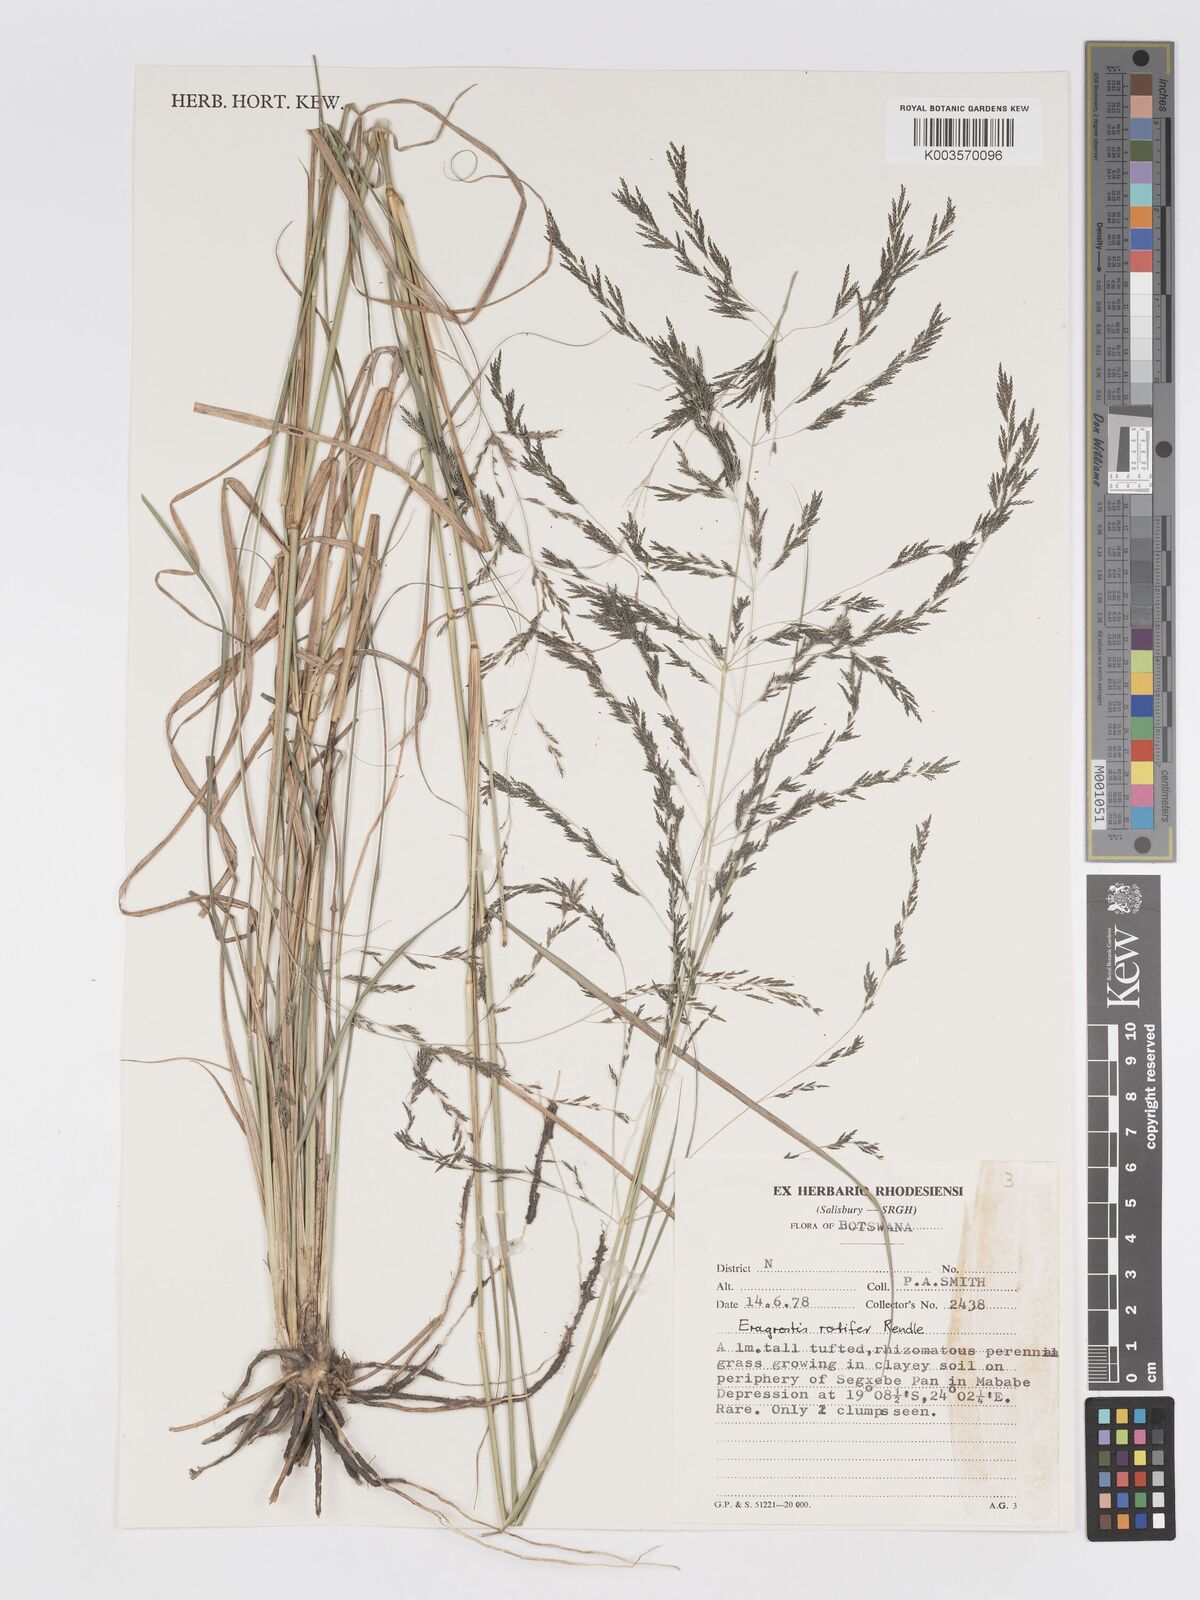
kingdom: Plantae
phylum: Tracheophyta
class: Liliopsida
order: Poales
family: Poaceae
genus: Eragrostis
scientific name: Eragrostis rotifer
